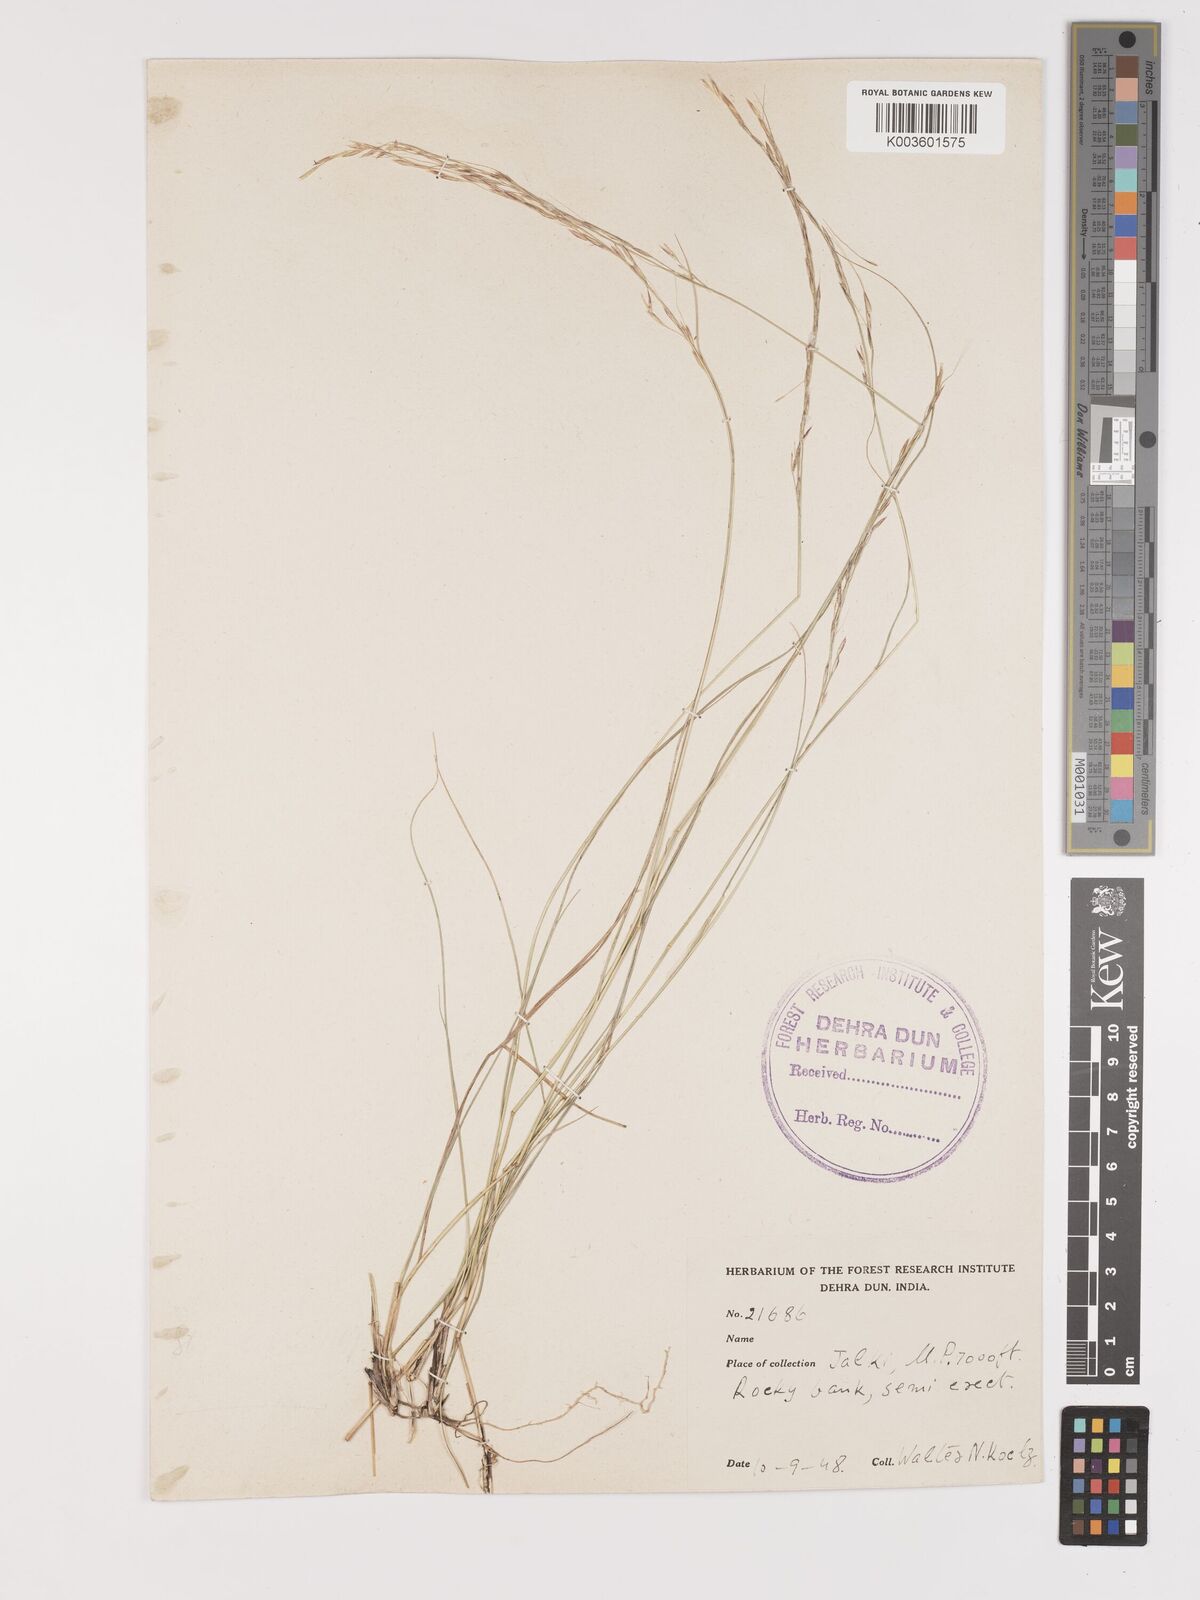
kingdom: Plantae
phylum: Tracheophyta
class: Liliopsida
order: Poales
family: Poaceae
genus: Achnatherum
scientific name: Achnatherum jacquemontii
